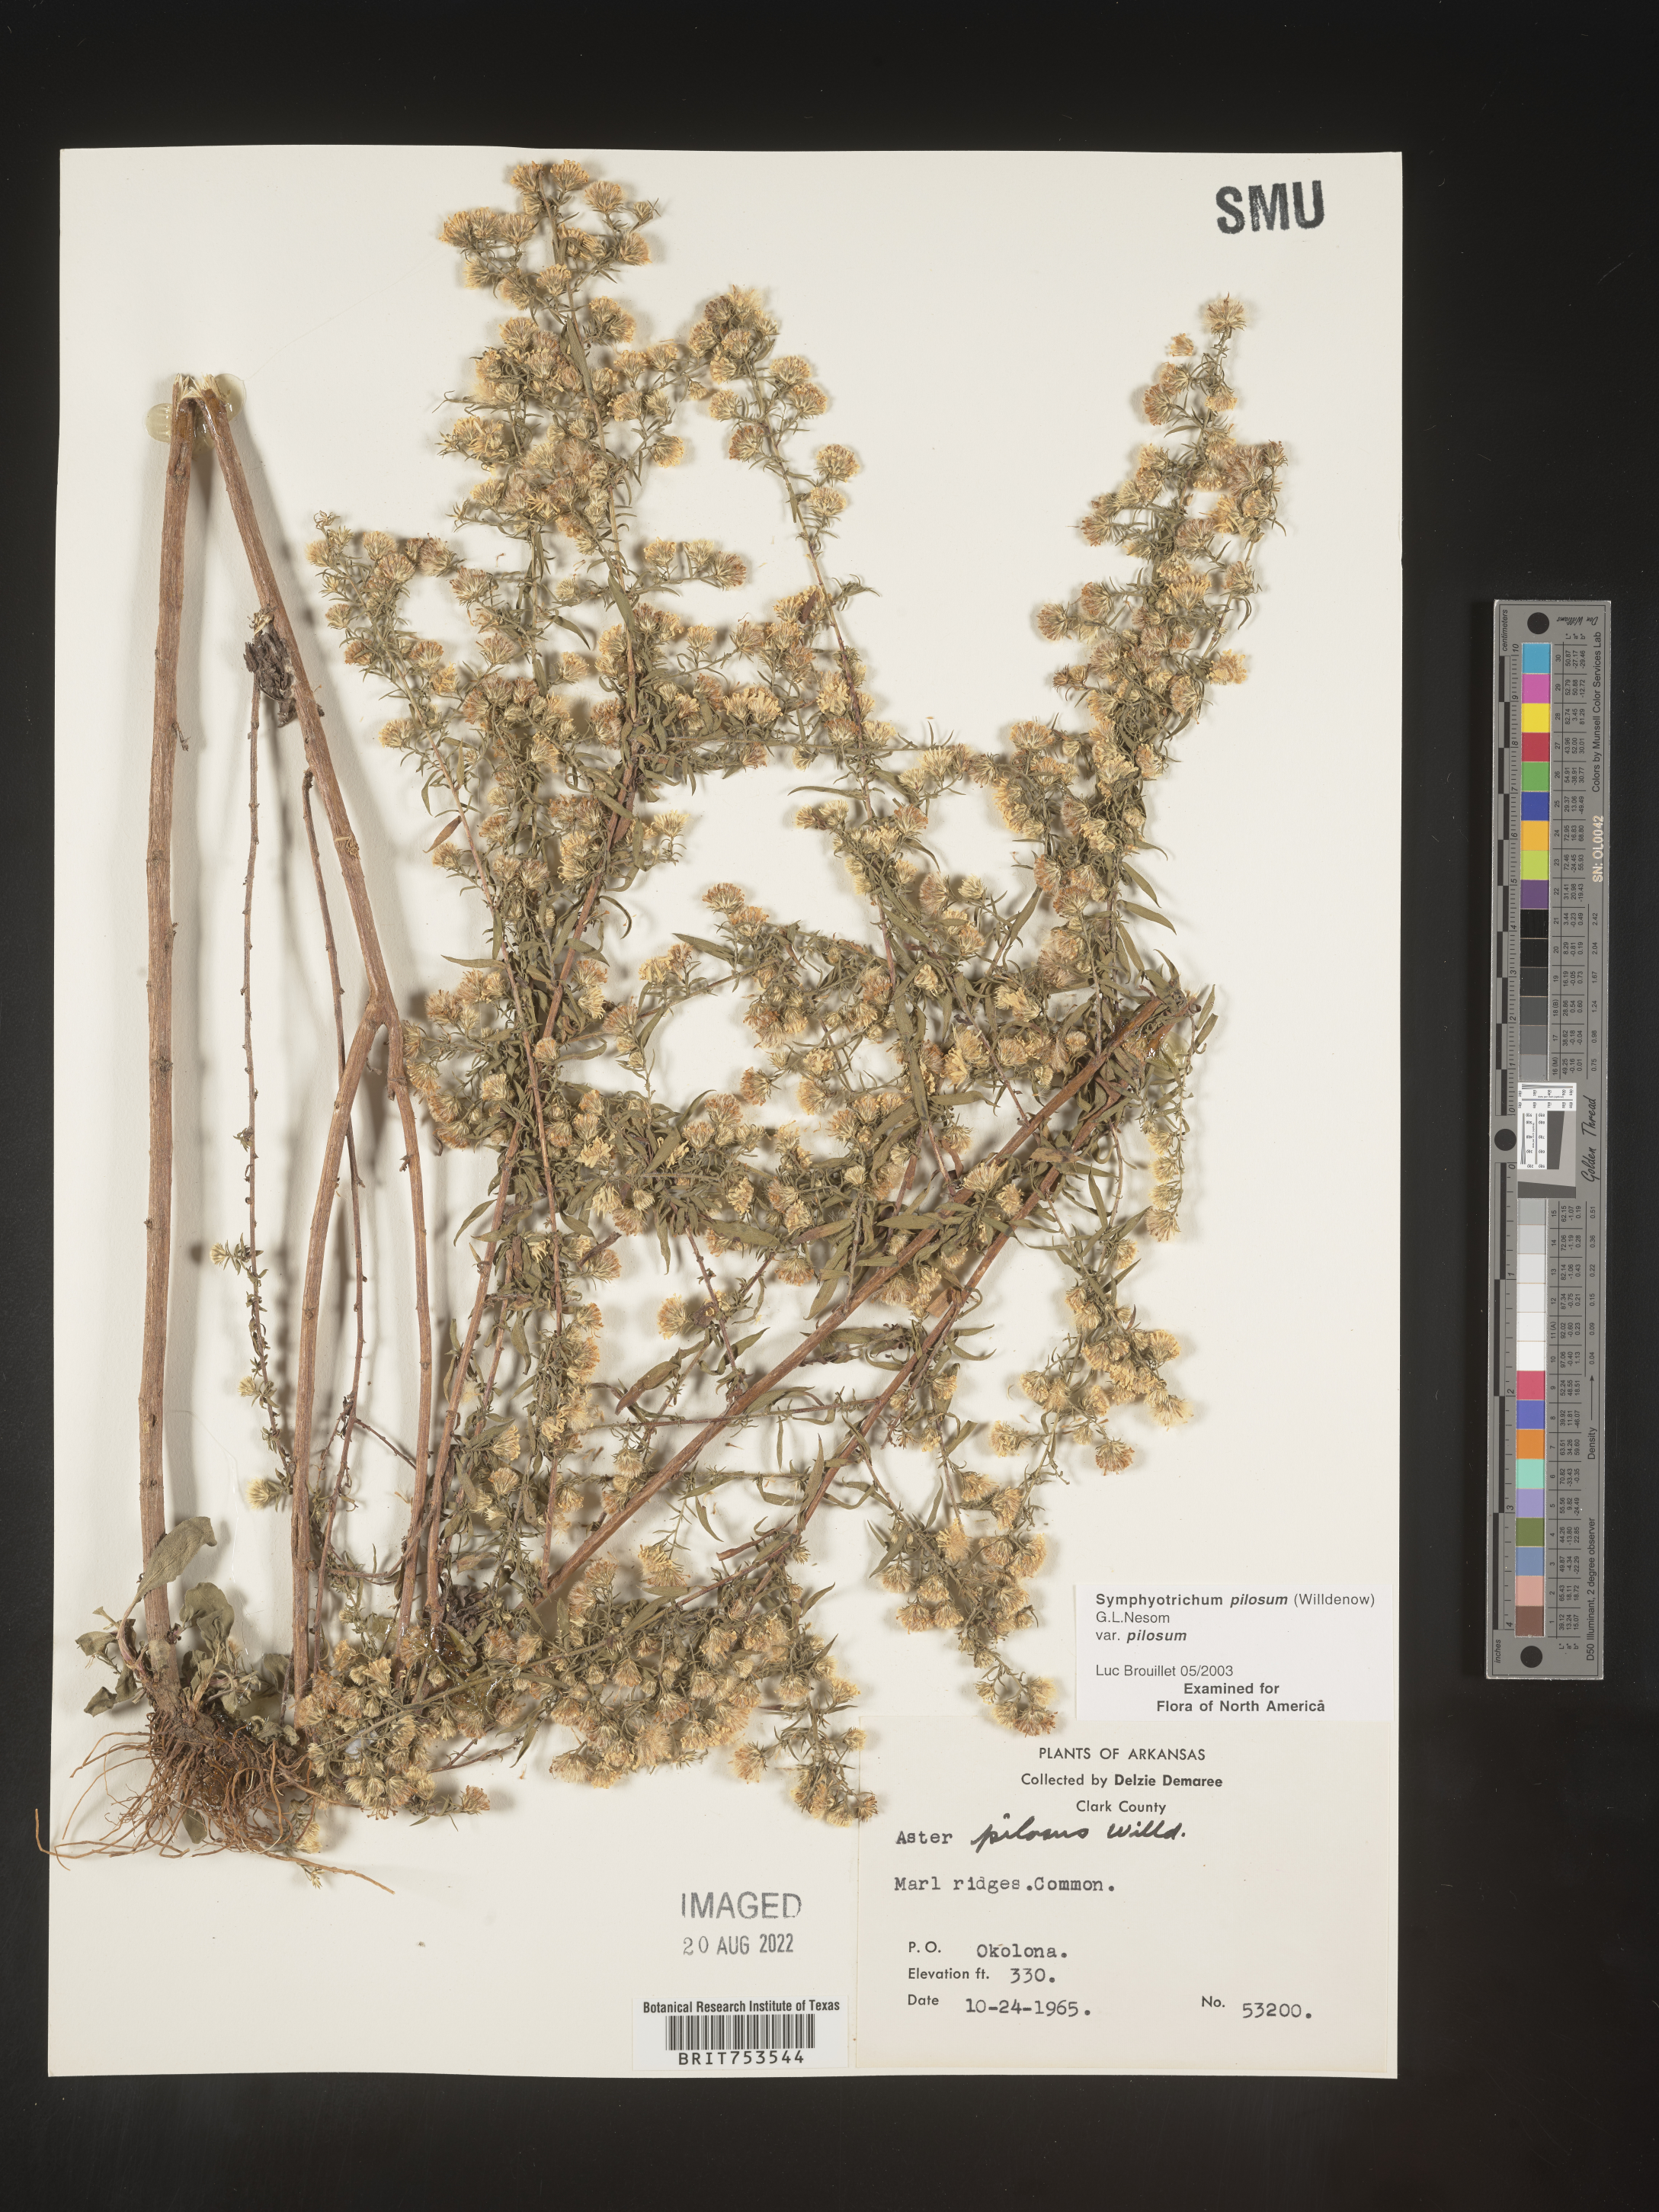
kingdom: Plantae
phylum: Tracheophyta
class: Magnoliopsida
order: Asterales
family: Asteraceae
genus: Symphyotrichum
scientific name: Symphyotrichum pilosum
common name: Awl aster
